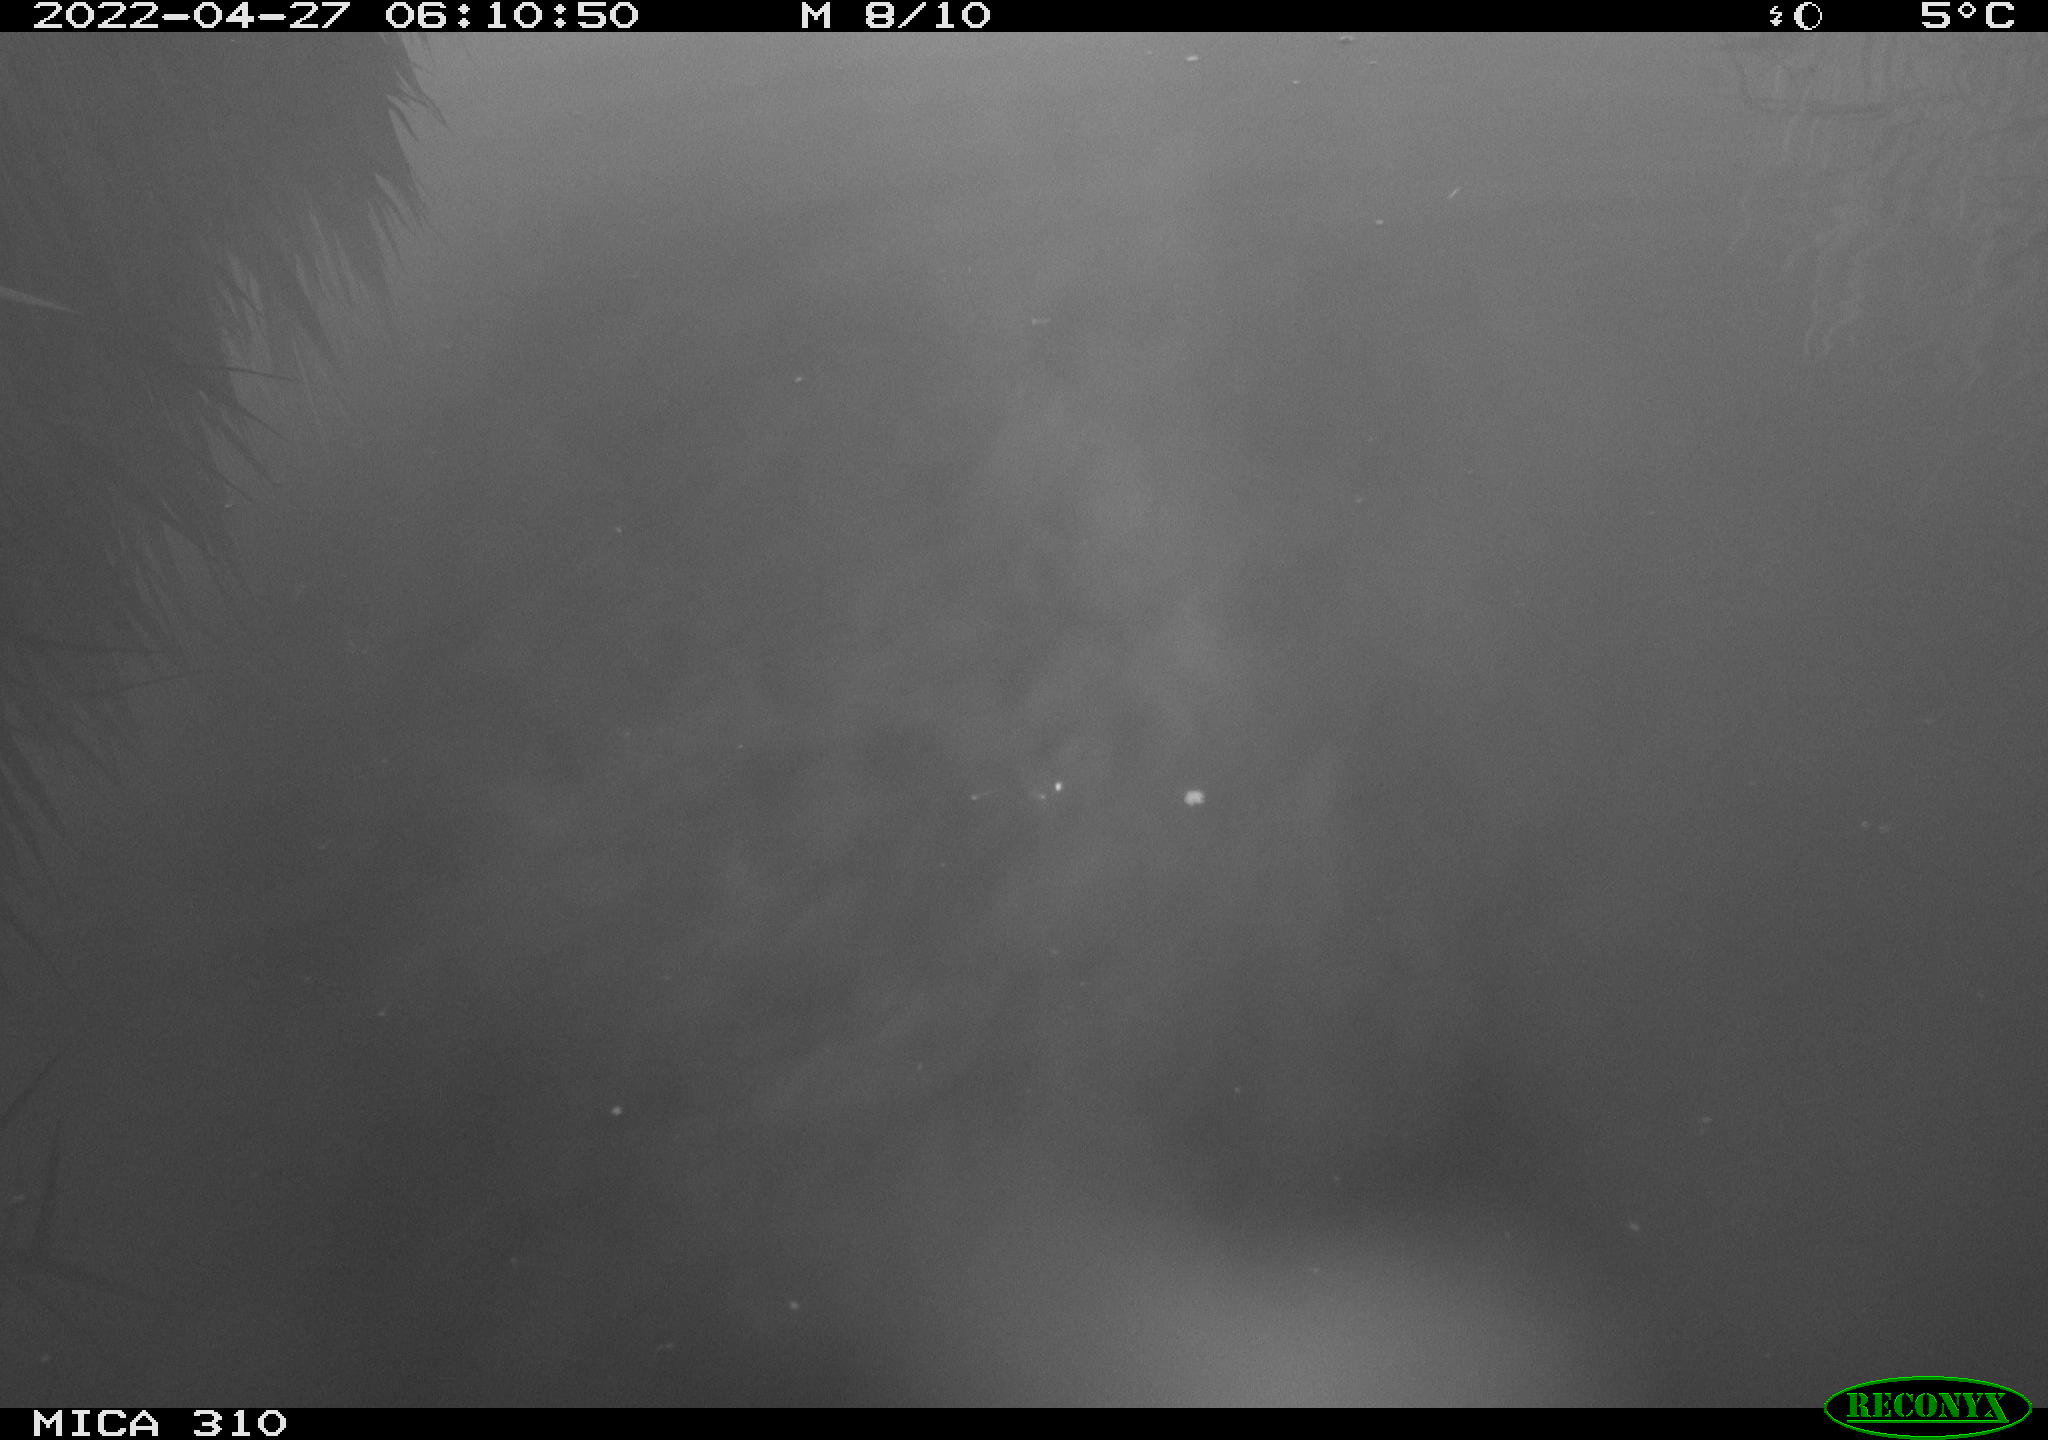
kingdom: Animalia
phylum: Chordata
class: Aves
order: Gruiformes
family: Rallidae
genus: Gallinula
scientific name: Gallinula chloropus
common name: Common moorhen
